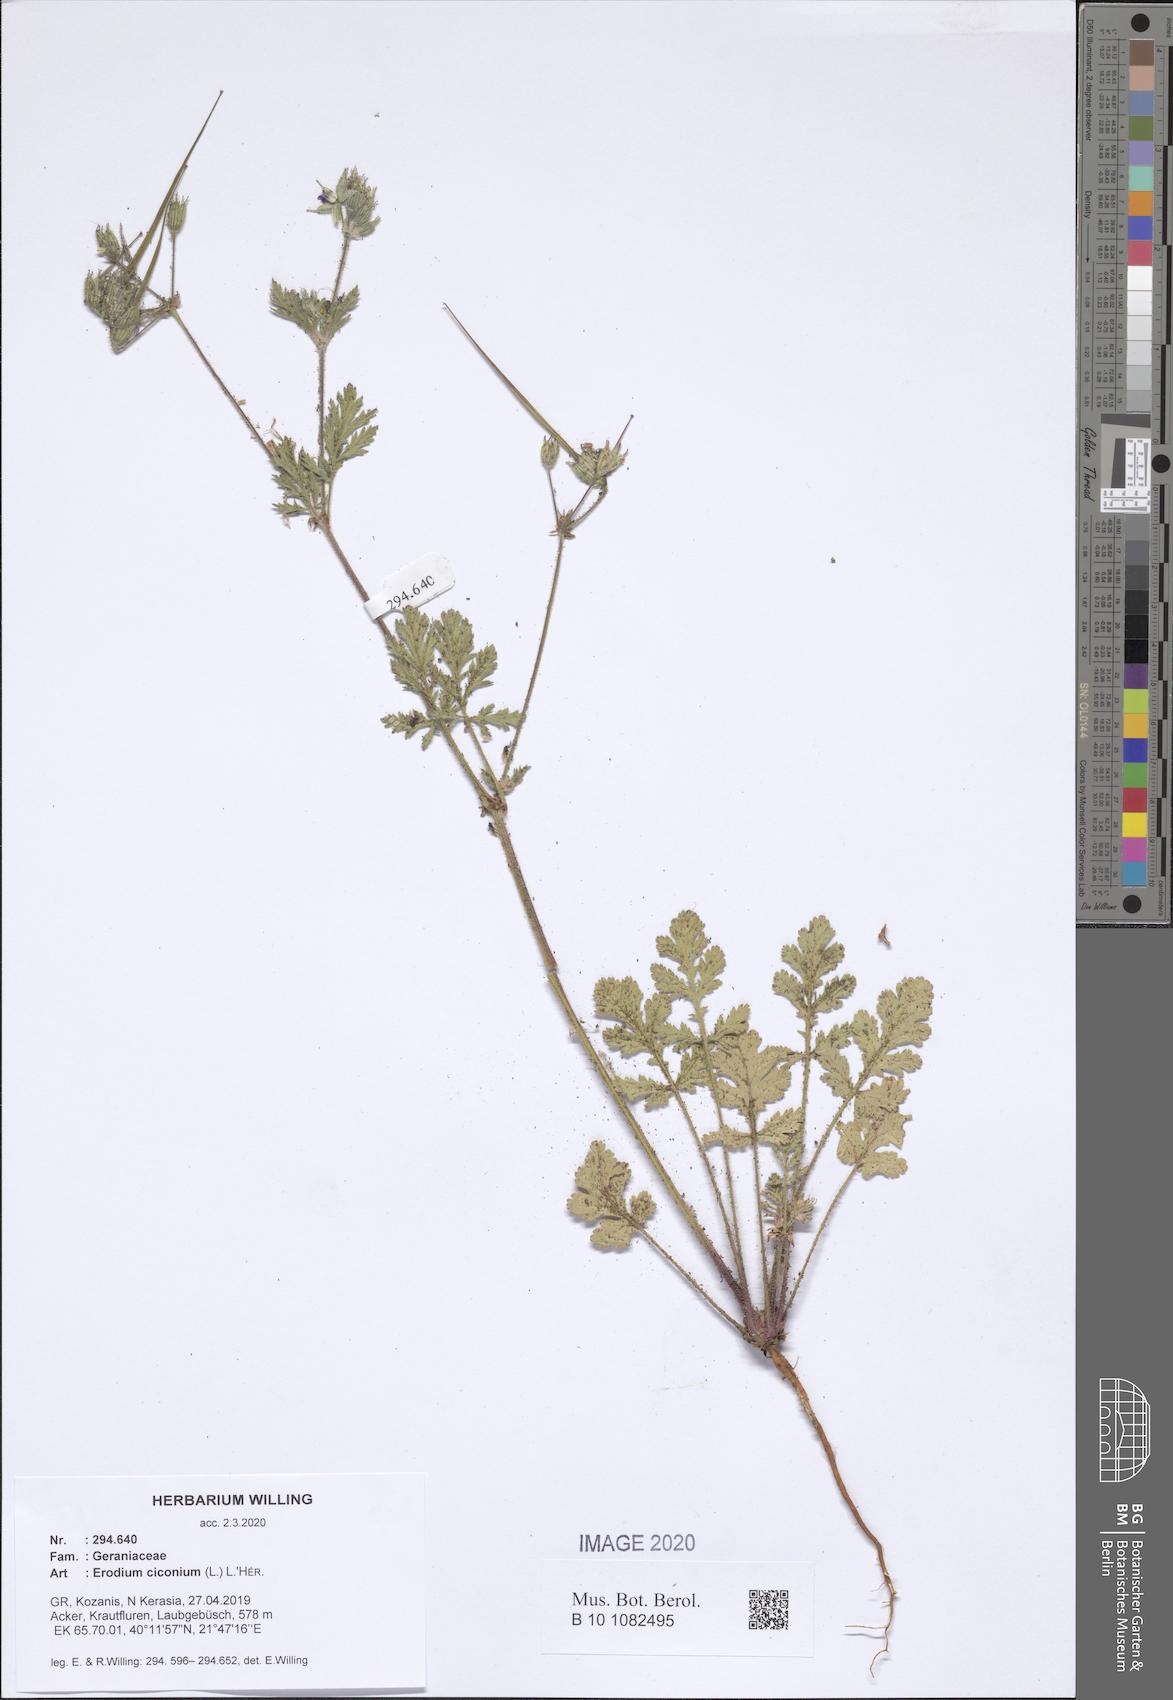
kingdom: Plantae
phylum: Tracheophyta
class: Magnoliopsida
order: Geraniales
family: Geraniaceae
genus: Erodium
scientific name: Erodium ciconium
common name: Common stork's bill
